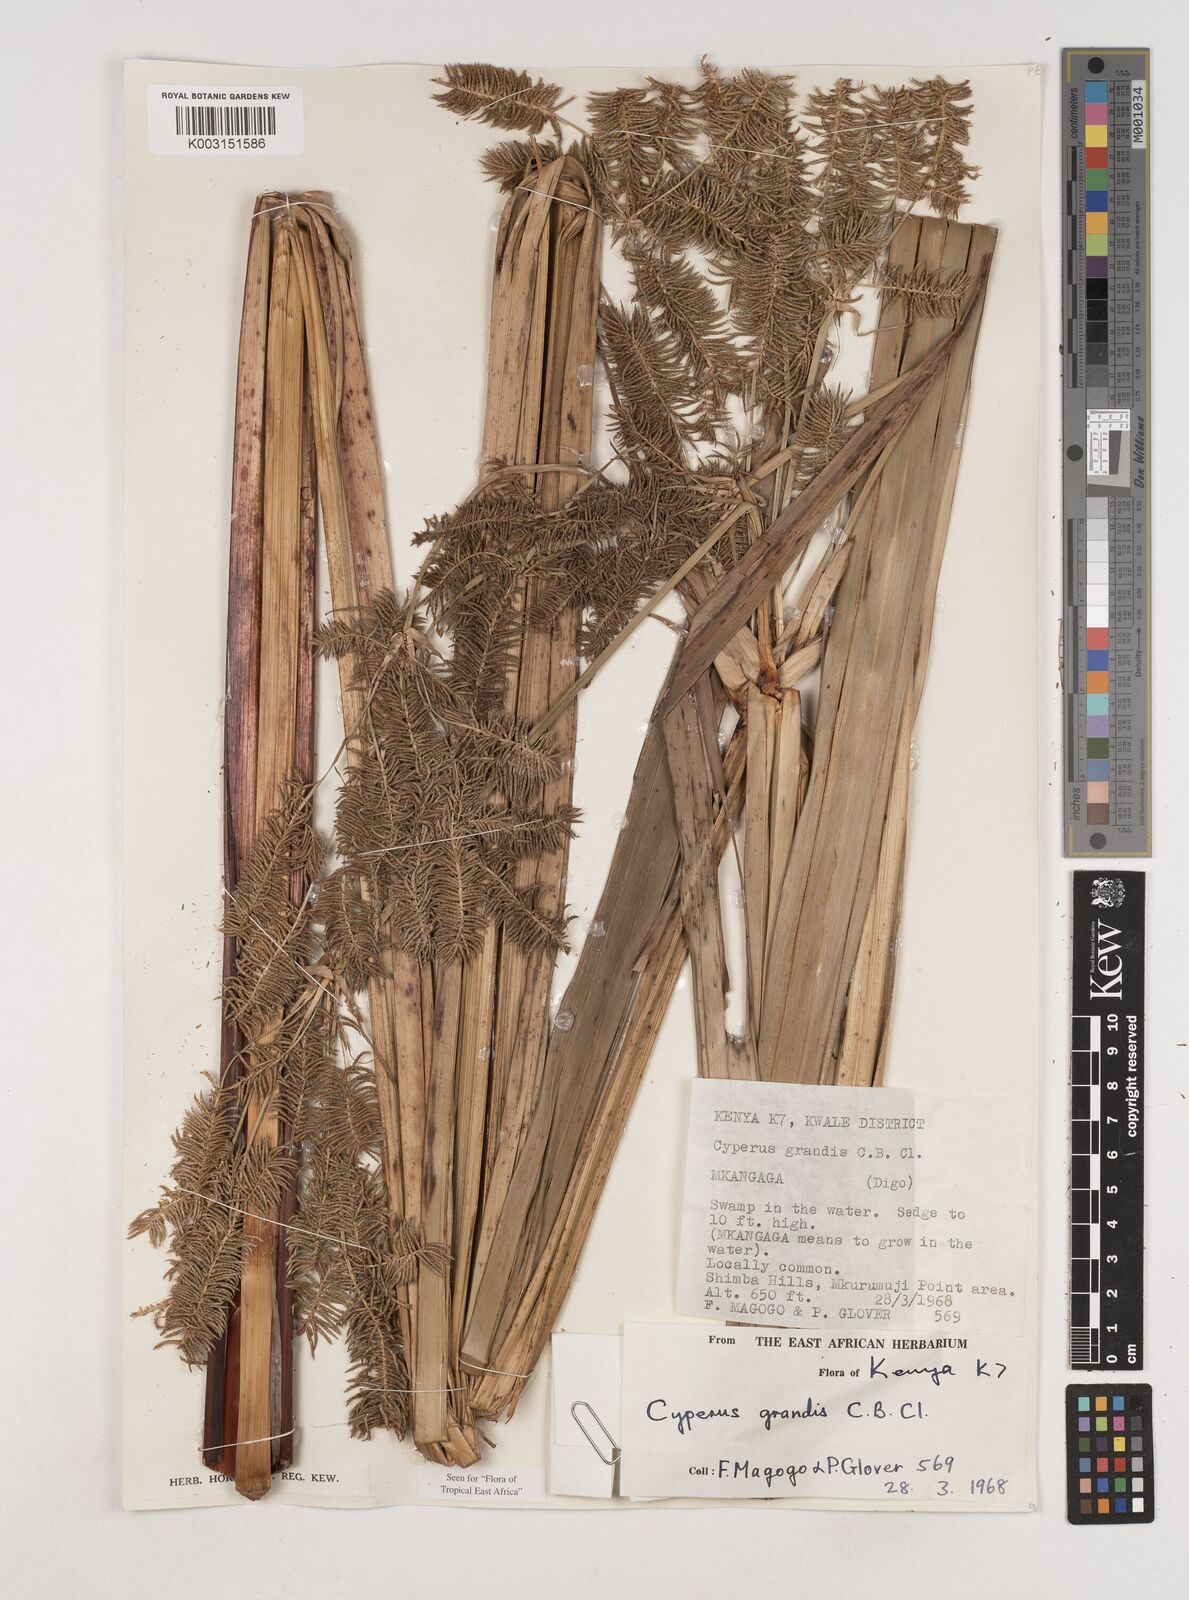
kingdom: Plantae
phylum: Tracheophyta
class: Liliopsida
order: Poales
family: Cyperaceae
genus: Cyperus
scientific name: Cyperus grandis
